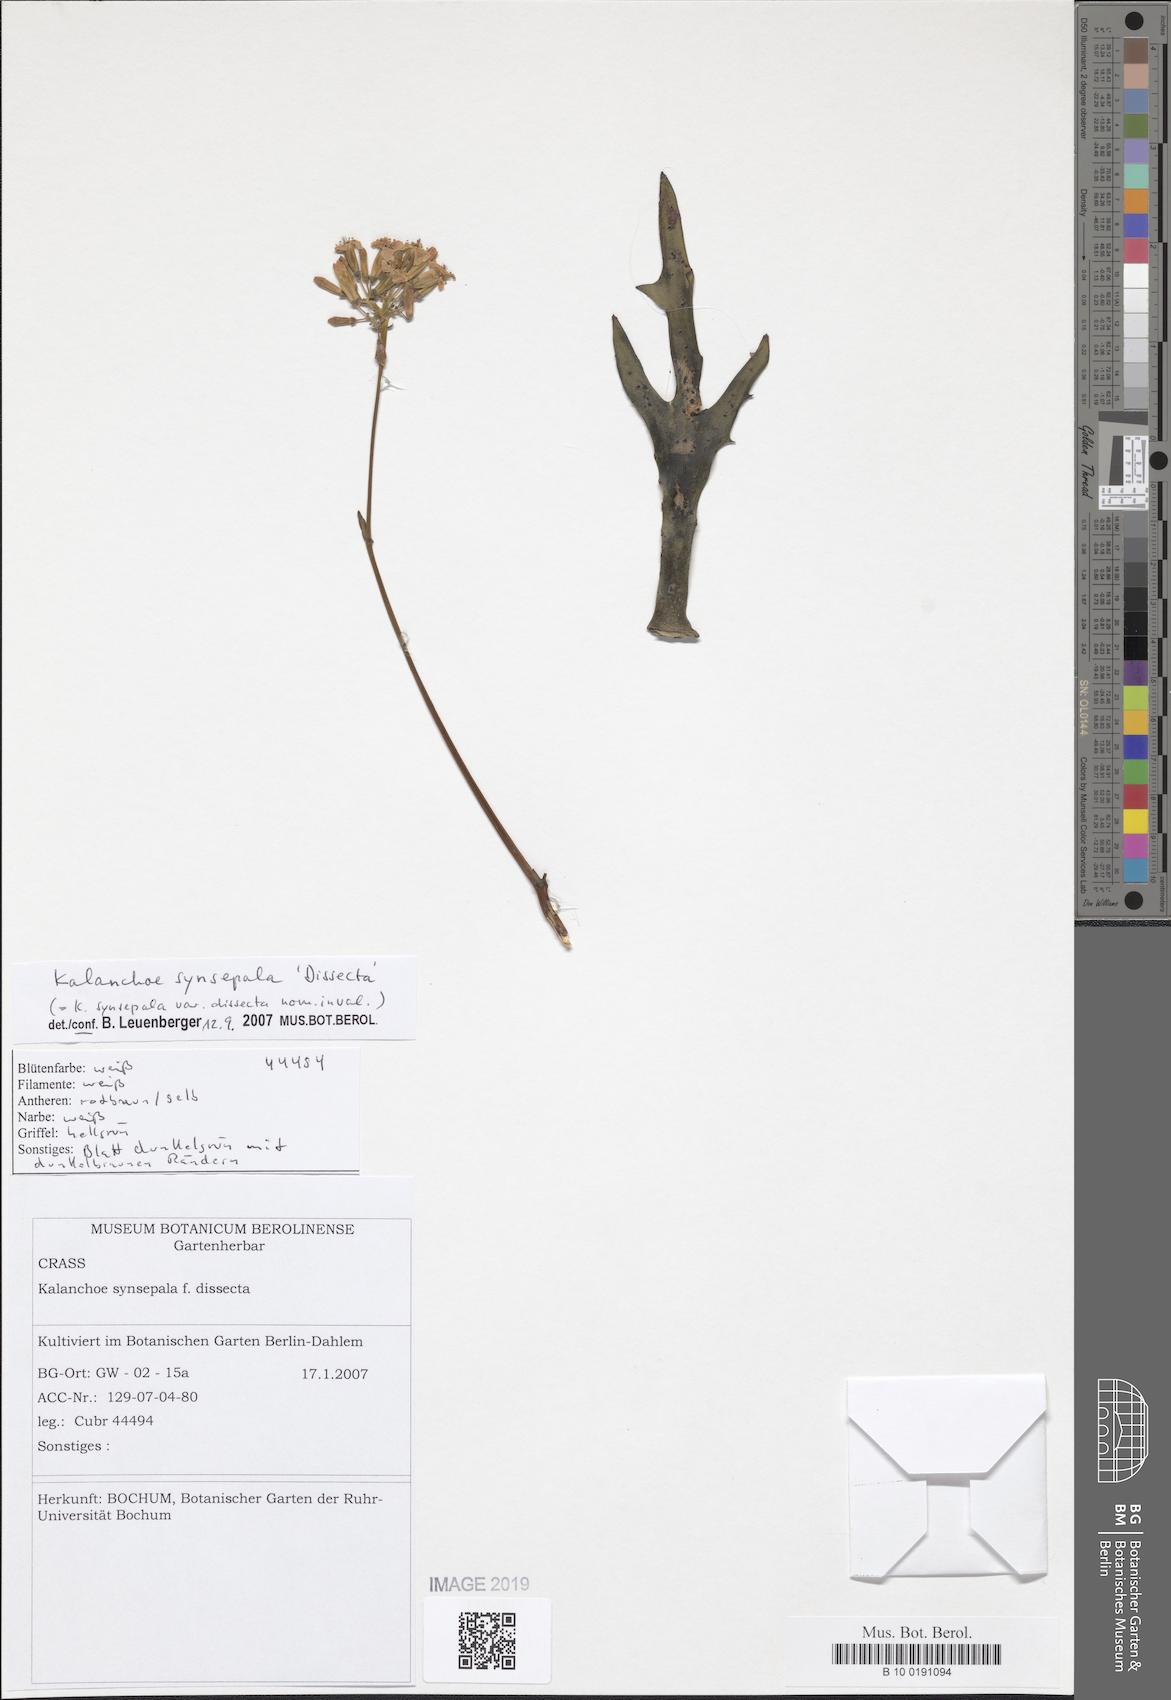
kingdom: Plantae
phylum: Tracheophyta
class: Magnoliopsida
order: Saxifragales
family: Crassulaceae
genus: Kalanchoe
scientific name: Kalanchoe synsepala
